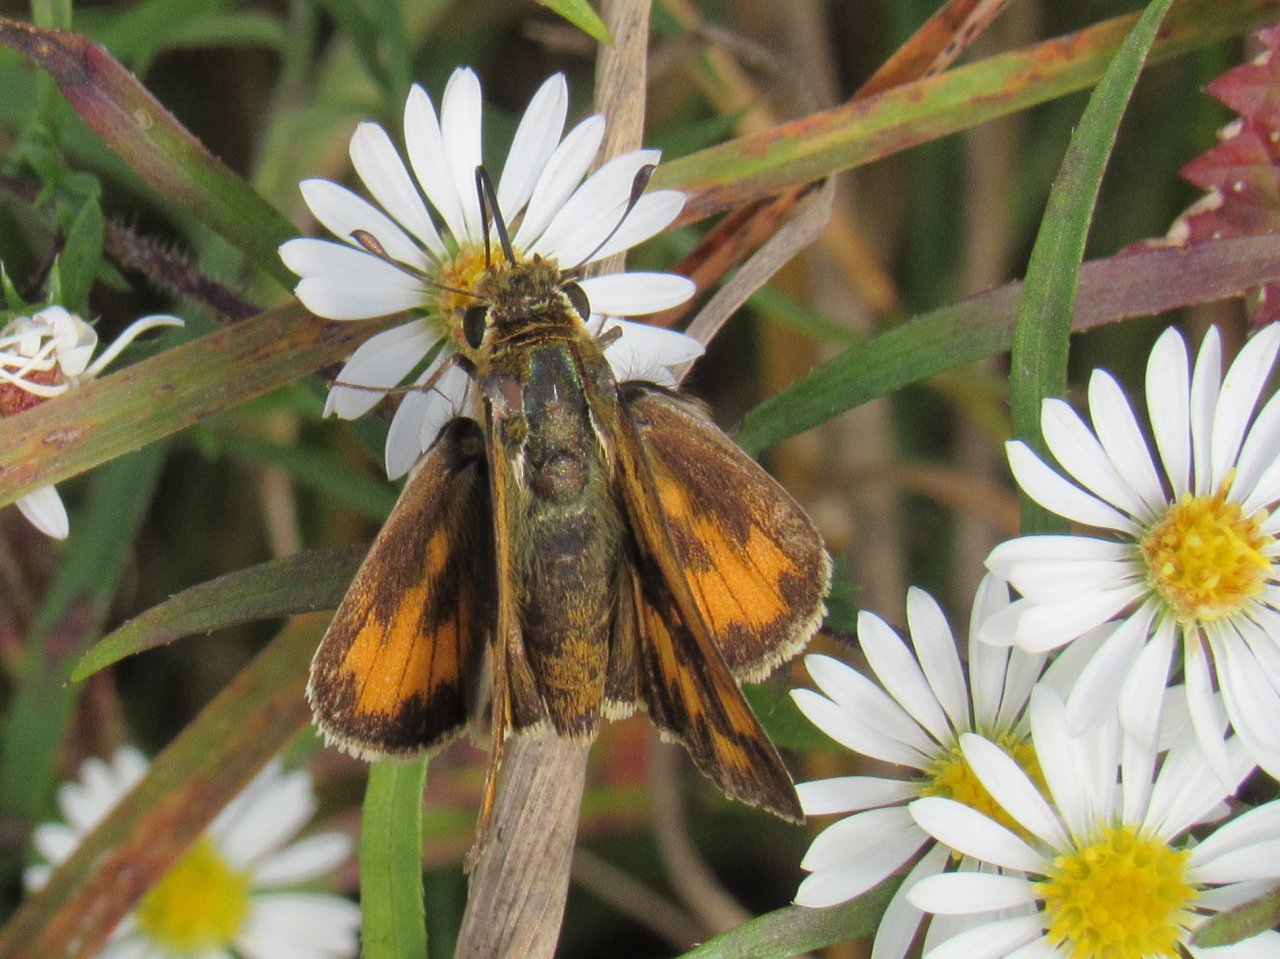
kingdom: Animalia
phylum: Arthropoda
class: Insecta
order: Lepidoptera
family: Hesperiidae
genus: Hylephila
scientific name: Hylephila phyleus
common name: Fiery Skipper
